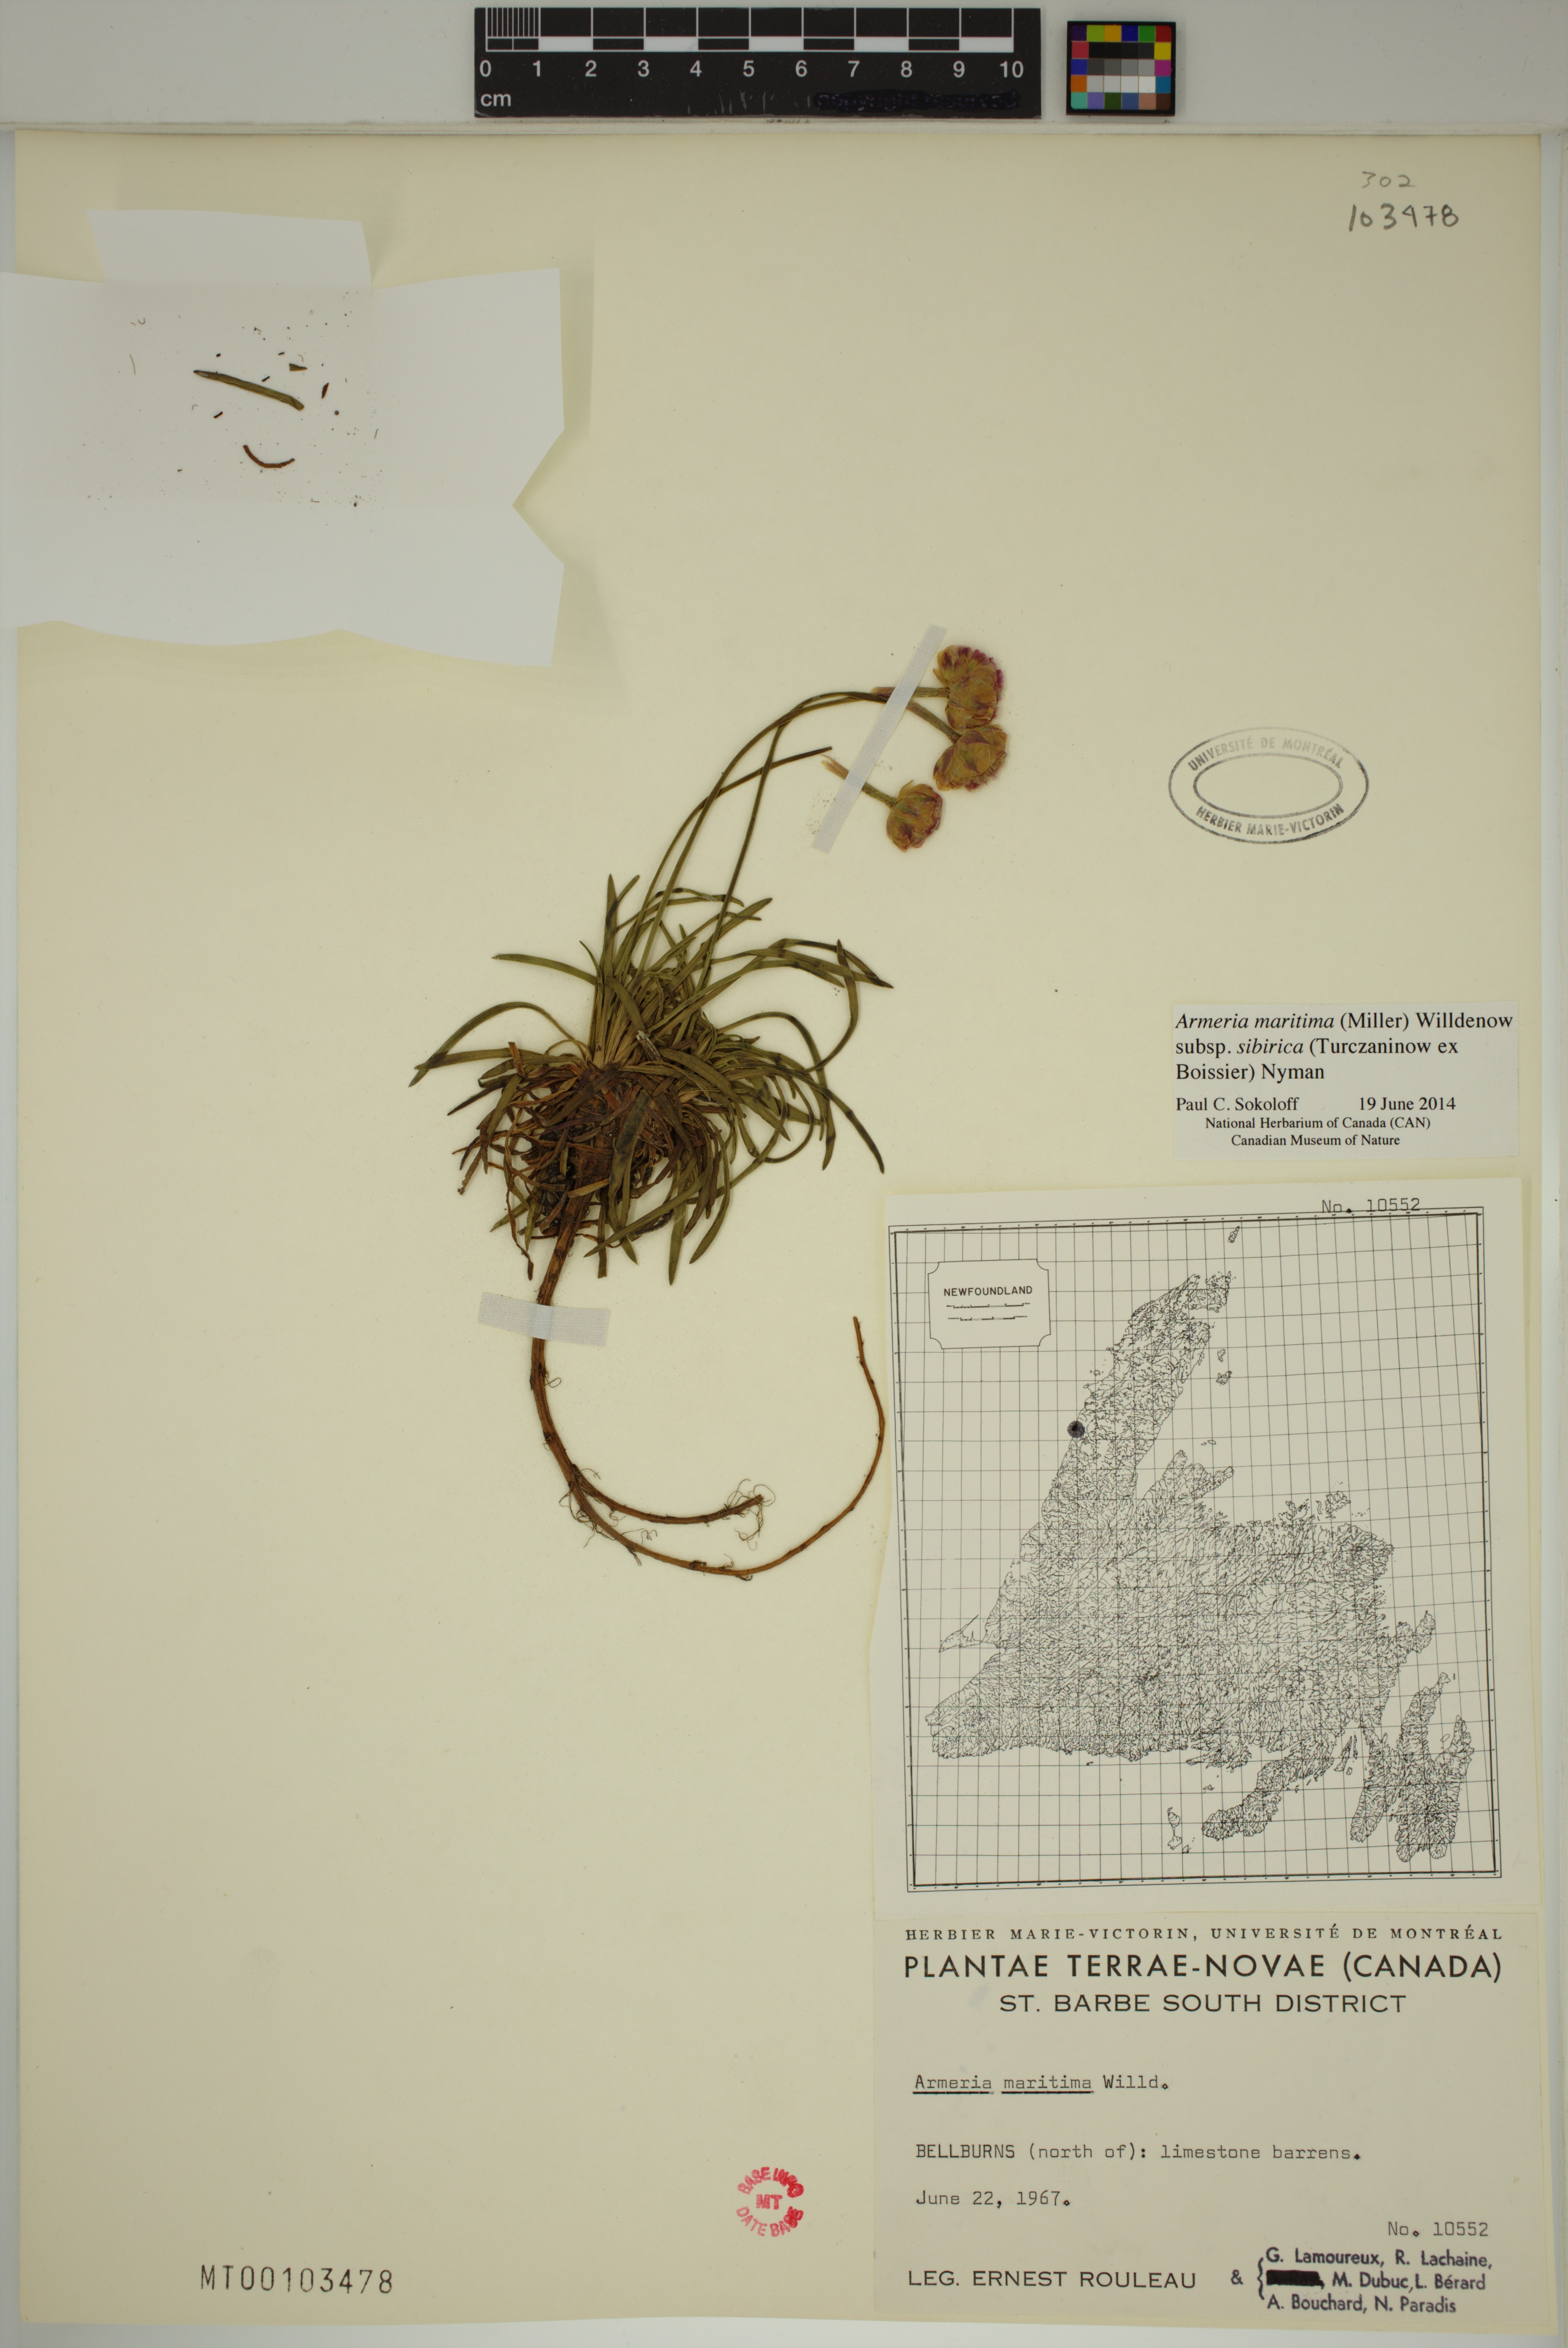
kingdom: Plantae
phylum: Tracheophyta
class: Magnoliopsida
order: Caryophyllales
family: Plumbaginaceae
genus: Armeria
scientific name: Armeria maritima
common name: Thrift
